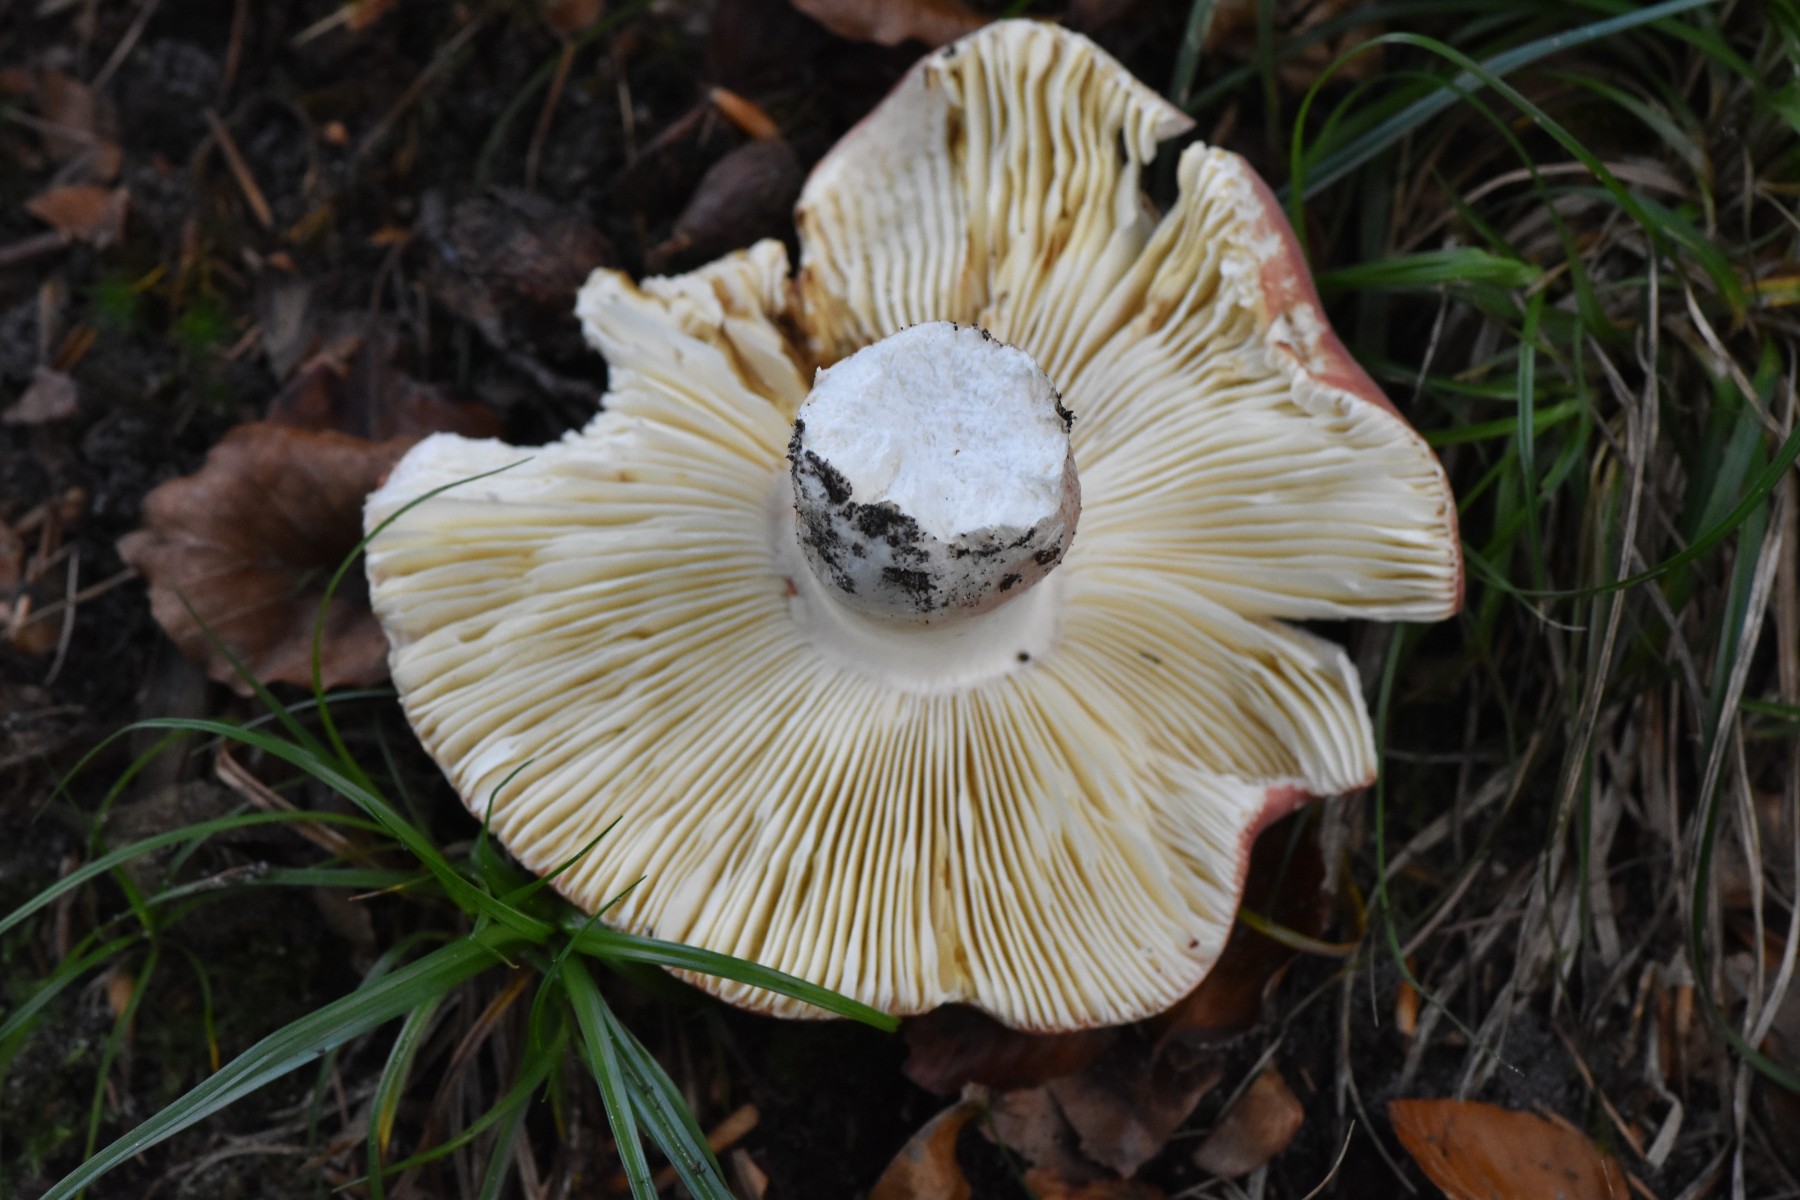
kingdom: Fungi
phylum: Basidiomycota
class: Agaricomycetes
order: Russulales
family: Russulaceae
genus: Russula
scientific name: Russula rosea
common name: fastkødet skørhat
